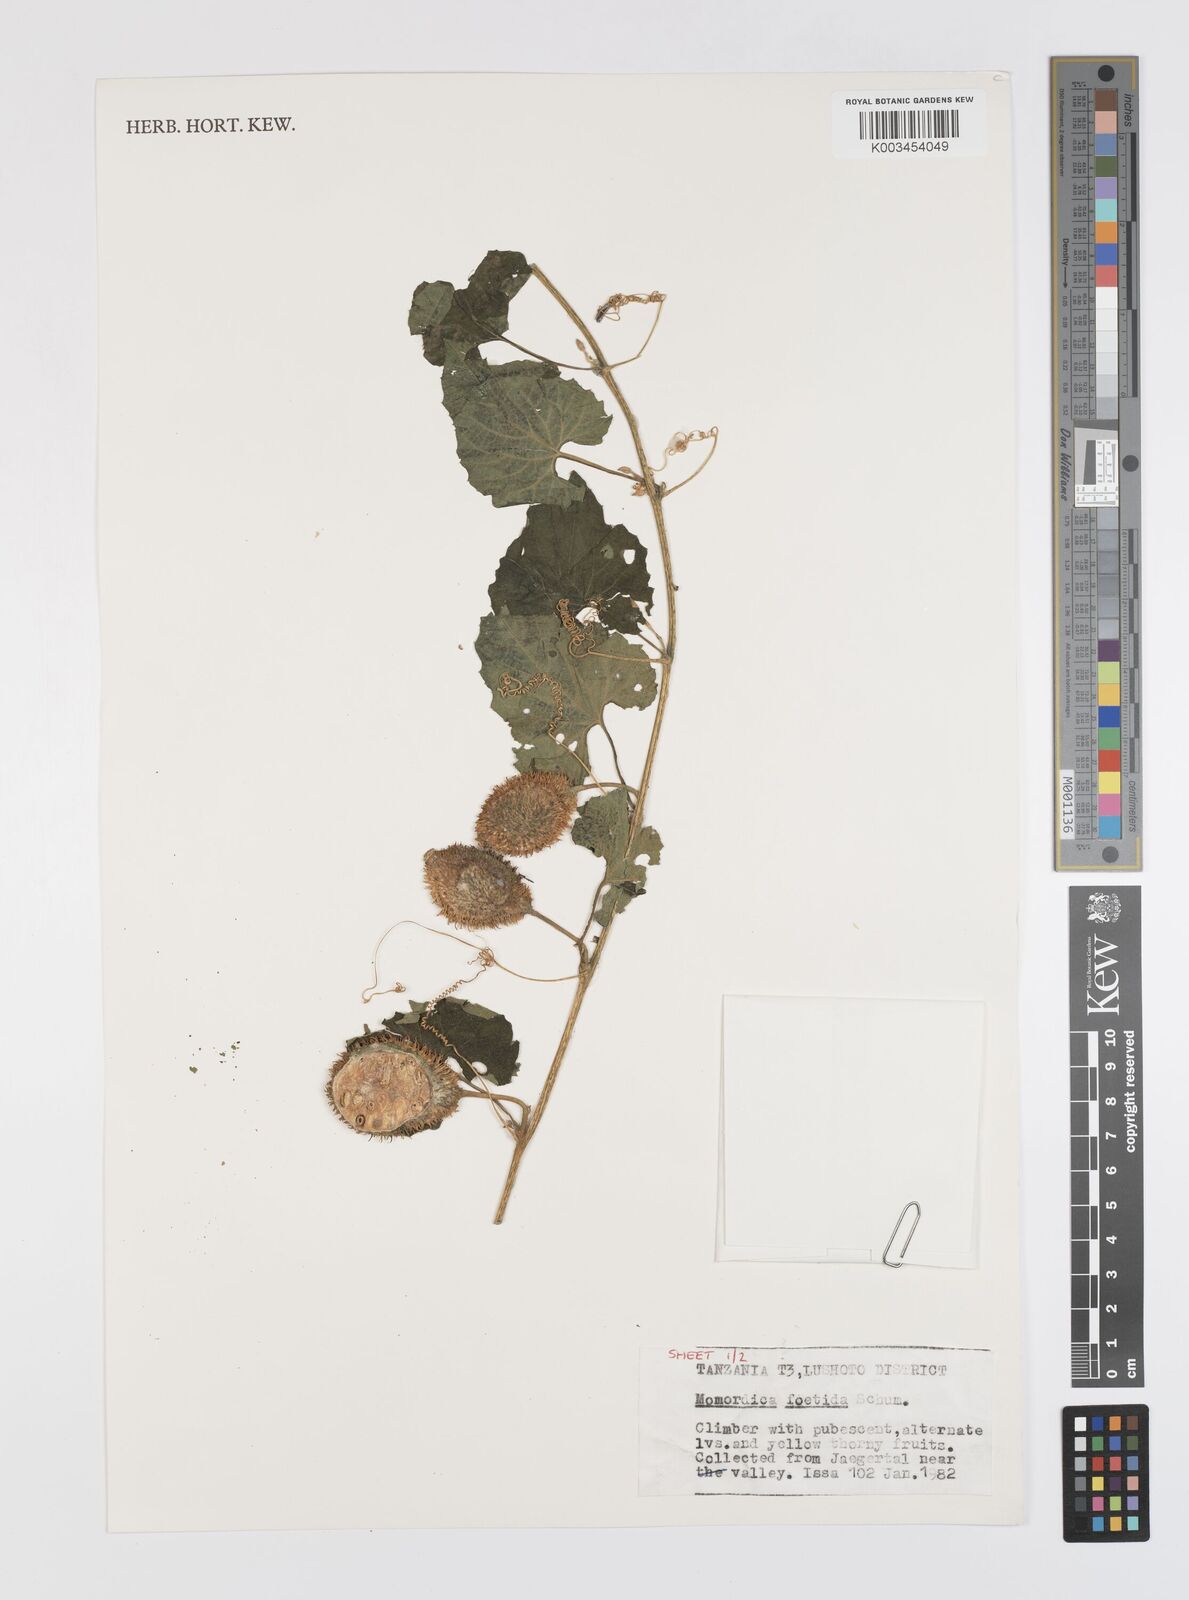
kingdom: Plantae
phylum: Tracheophyta
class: Magnoliopsida
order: Cucurbitales
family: Cucurbitaceae
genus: Momordica
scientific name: Momordica foetida
